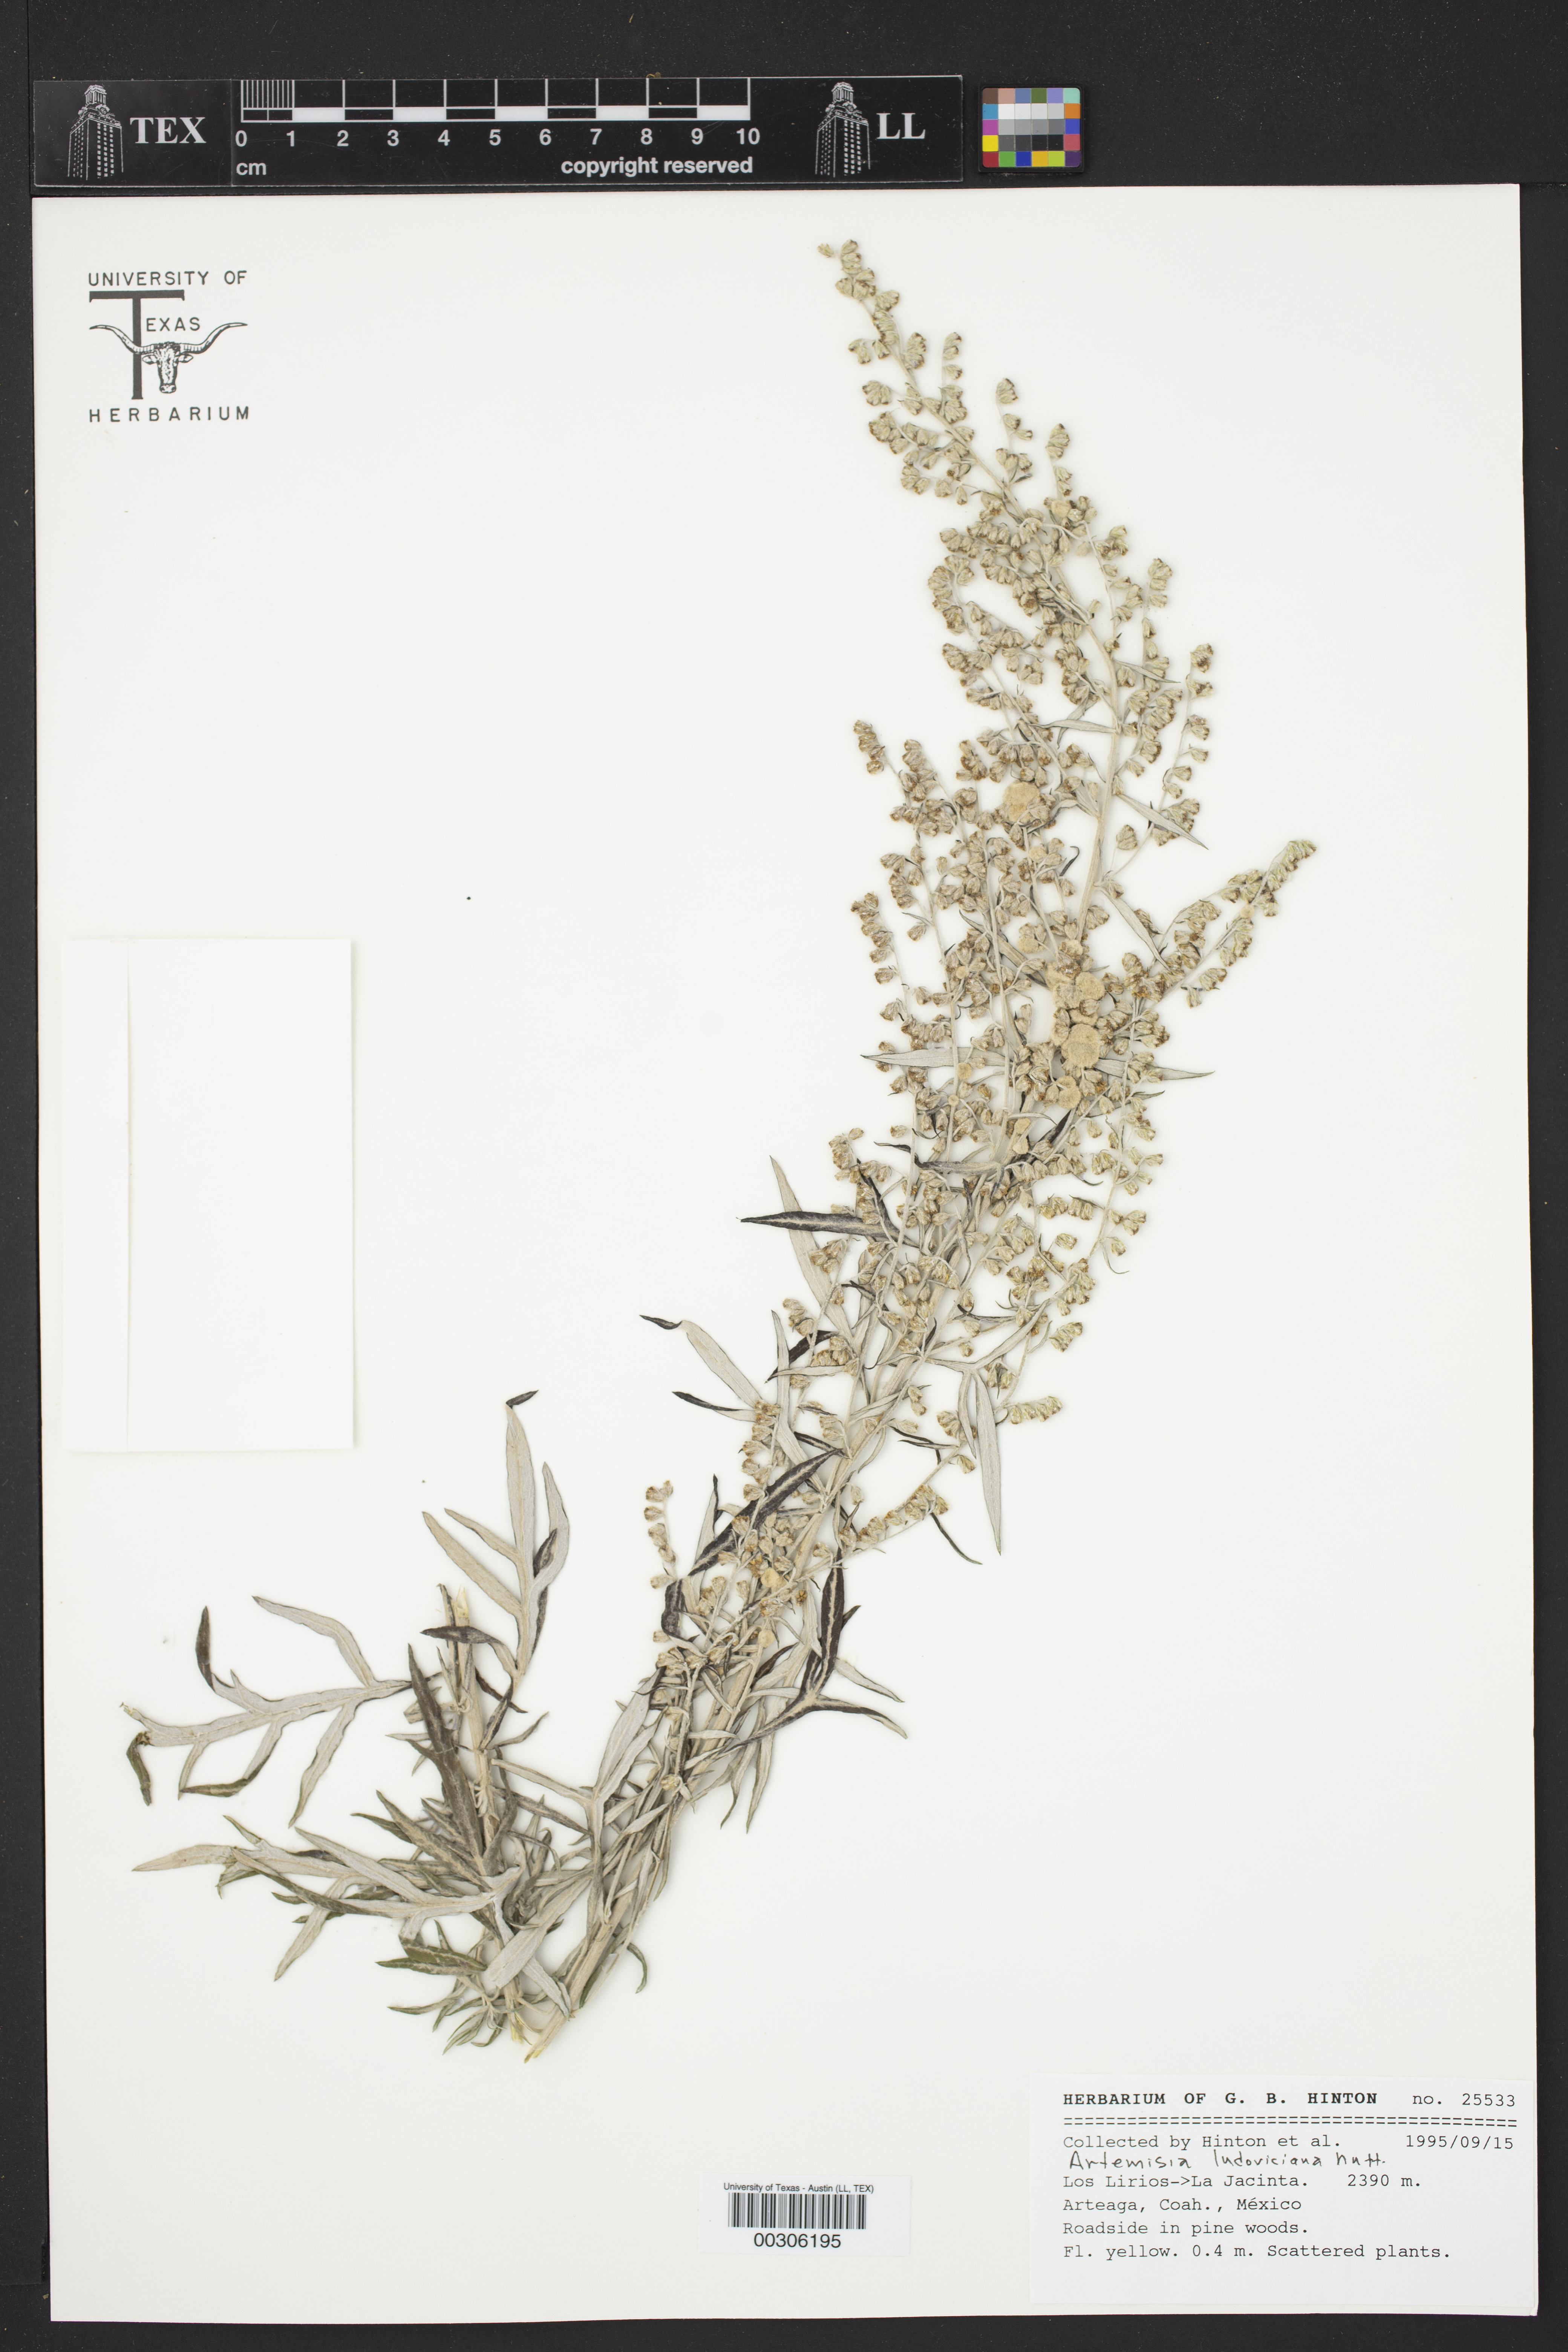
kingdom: Plantae
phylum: Tracheophyta
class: Magnoliopsida
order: Asterales
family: Asteraceae
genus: Artemisia
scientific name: Artemisia ludoviciana
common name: Western mugwort
